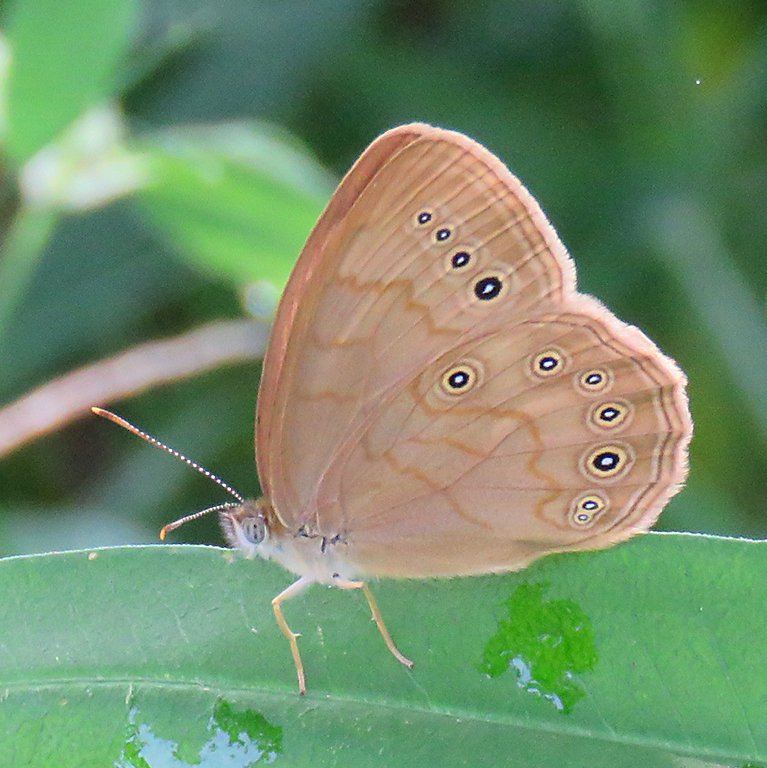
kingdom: Animalia
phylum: Arthropoda
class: Insecta
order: Lepidoptera
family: Nymphalidae
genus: Lethe
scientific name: Lethe eurydice
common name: Eyed Brown
